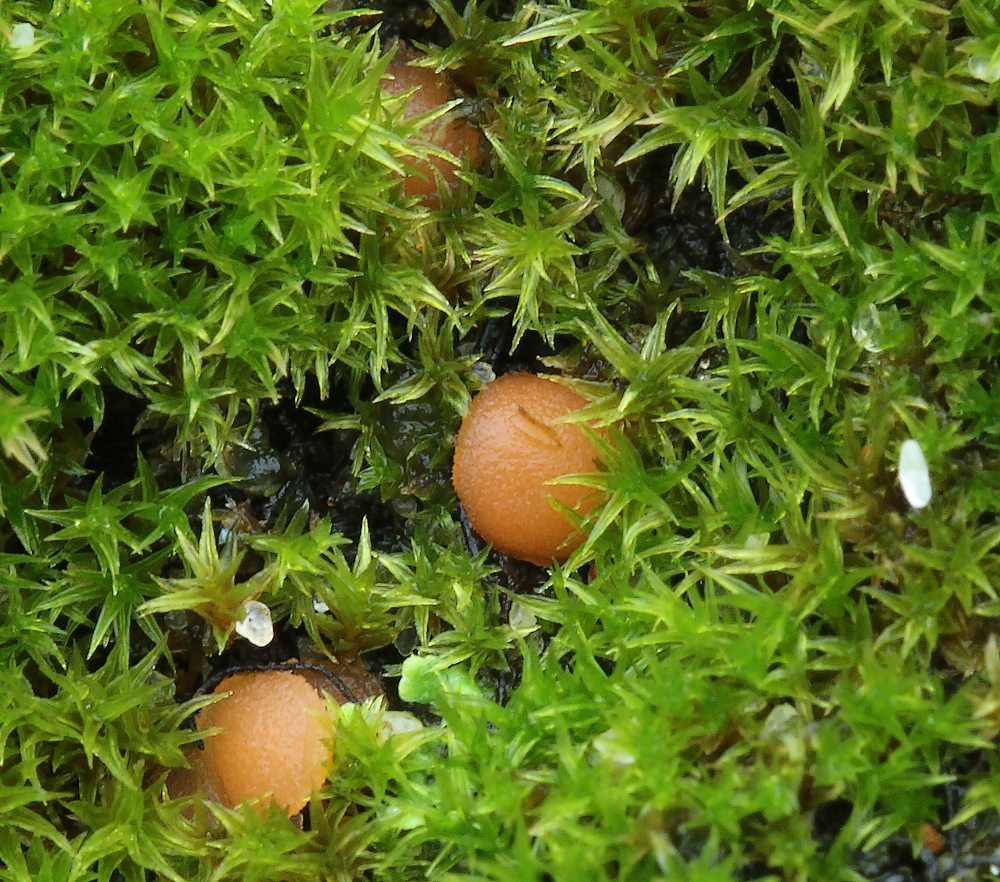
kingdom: Fungi
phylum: Ascomycota
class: Pezizomycetes
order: Pezizales
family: Pyronemataceae
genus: Octospora
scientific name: Octospora rustica
